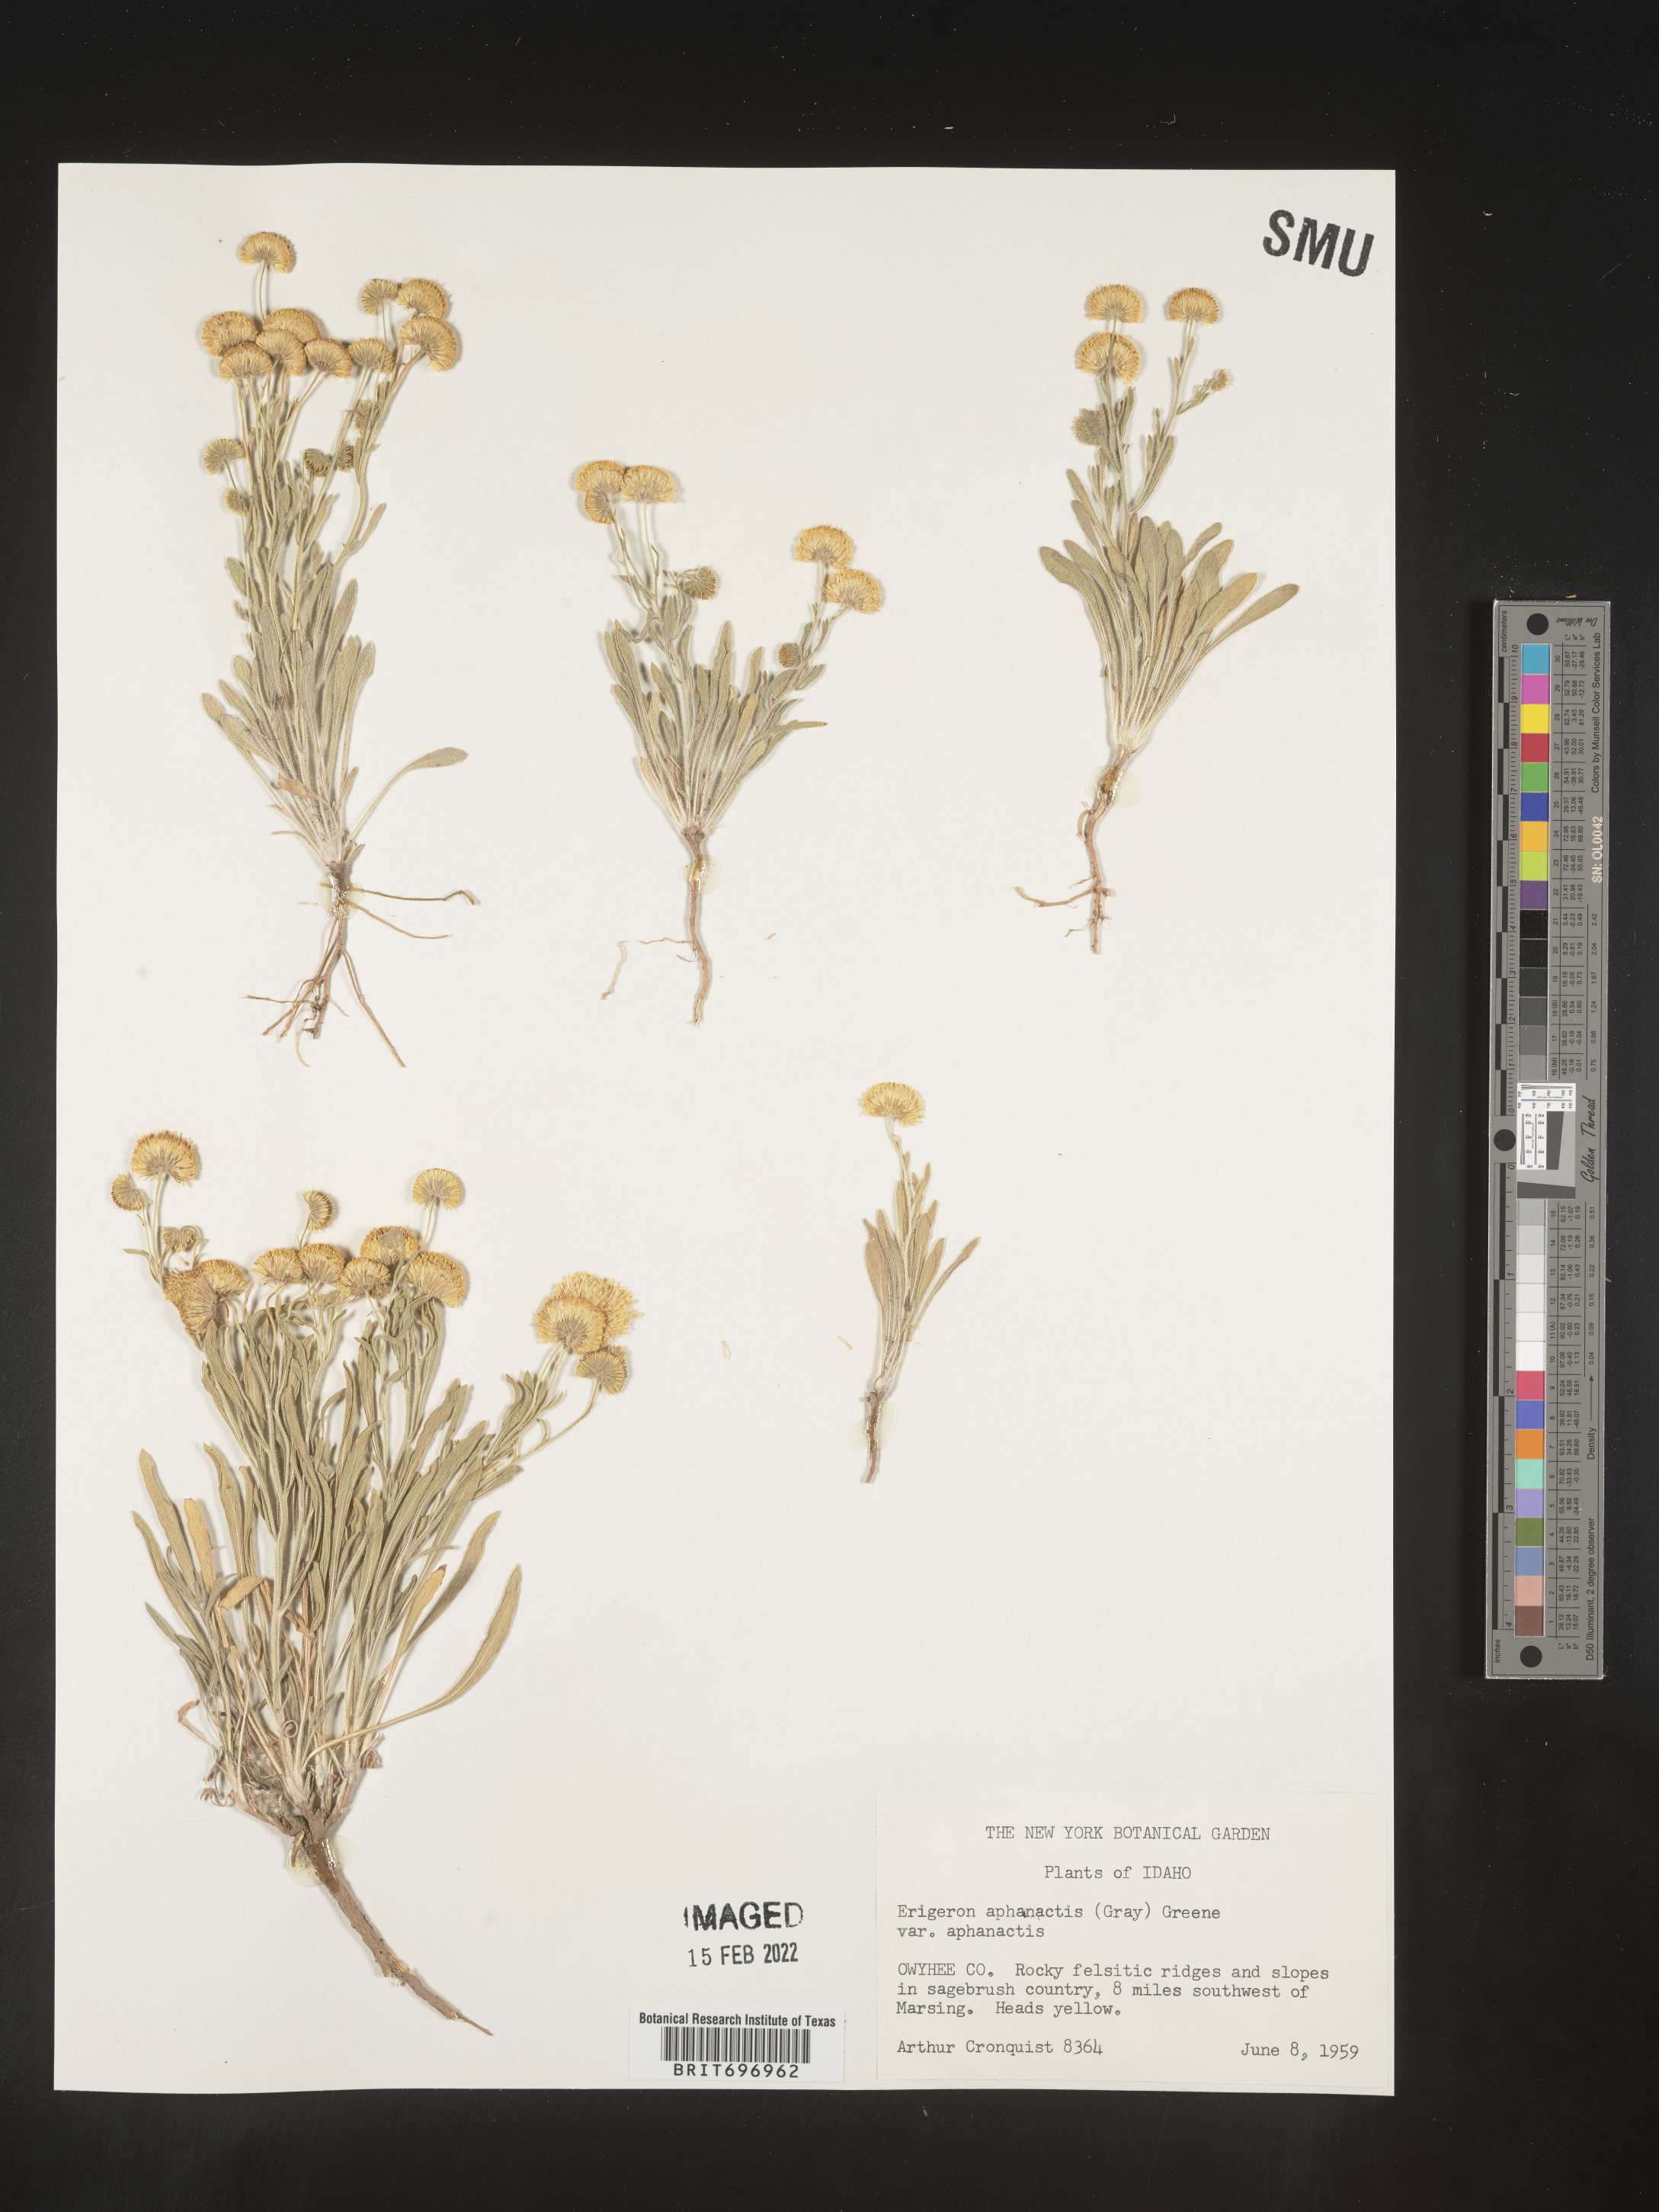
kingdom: Plantae
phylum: Tracheophyta
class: Magnoliopsida
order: Asterales
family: Asteraceae
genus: Erigeron
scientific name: Erigeron aphanactis
